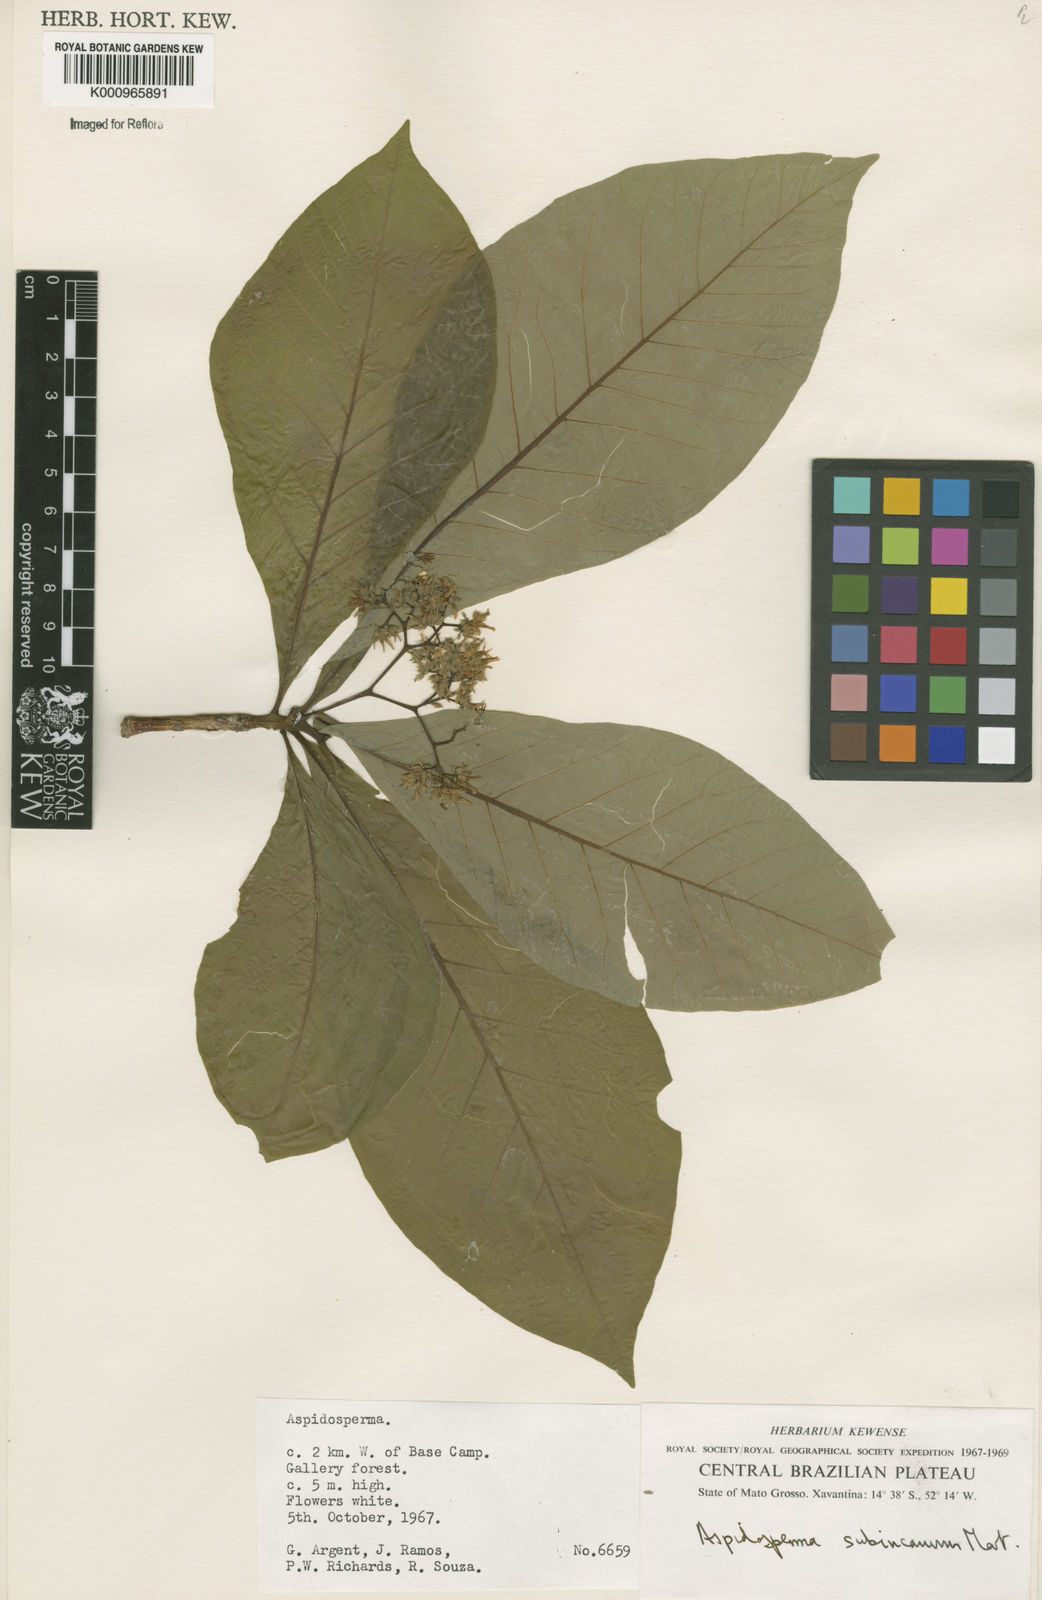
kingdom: Plantae
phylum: Tracheophyta
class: Magnoliopsida
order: Gentianales
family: Apocynaceae
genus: Aspidosperma
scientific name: Aspidosperma subincanum
